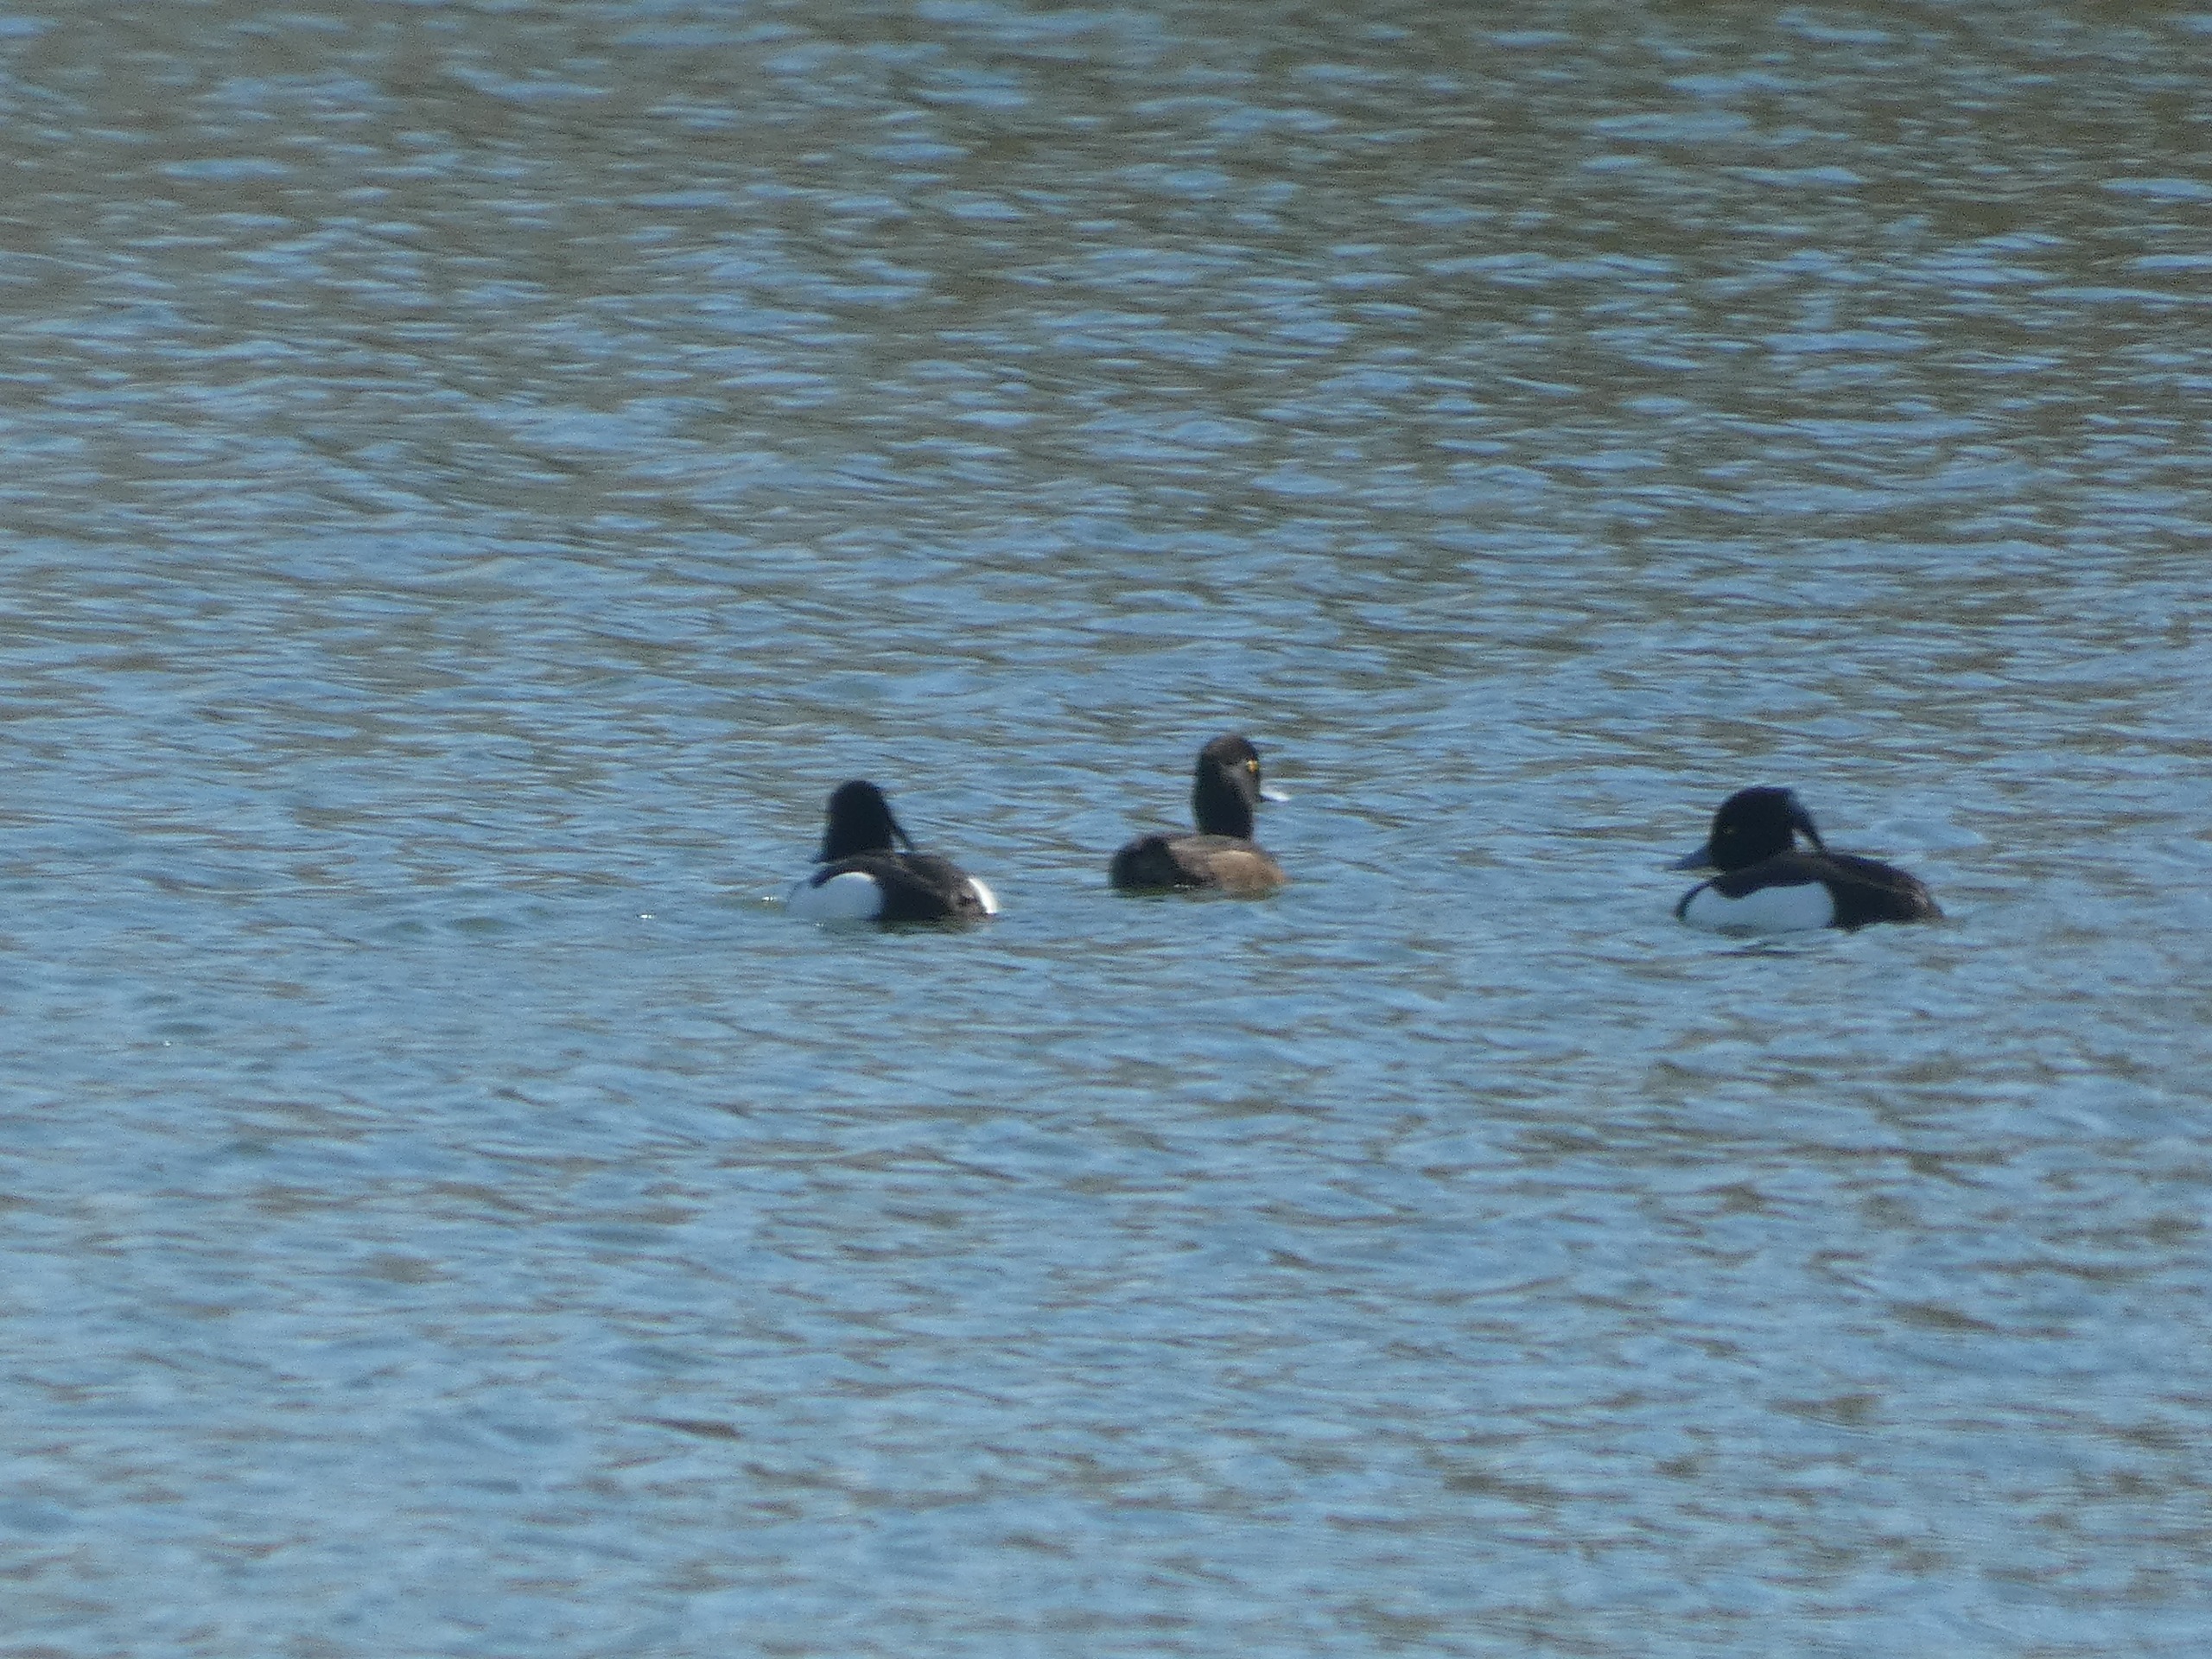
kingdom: Animalia
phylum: Chordata
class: Aves
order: Anseriformes
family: Anatidae
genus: Aythya
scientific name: Aythya fuligula
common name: Troldand
